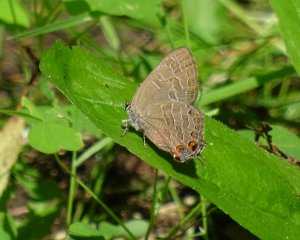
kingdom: Animalia
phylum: Arthropoda
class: Insecta
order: Lepidoptera
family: Lycaenidae
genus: Satyrium
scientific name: Satyrium liparops
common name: Striped Hairstreak
